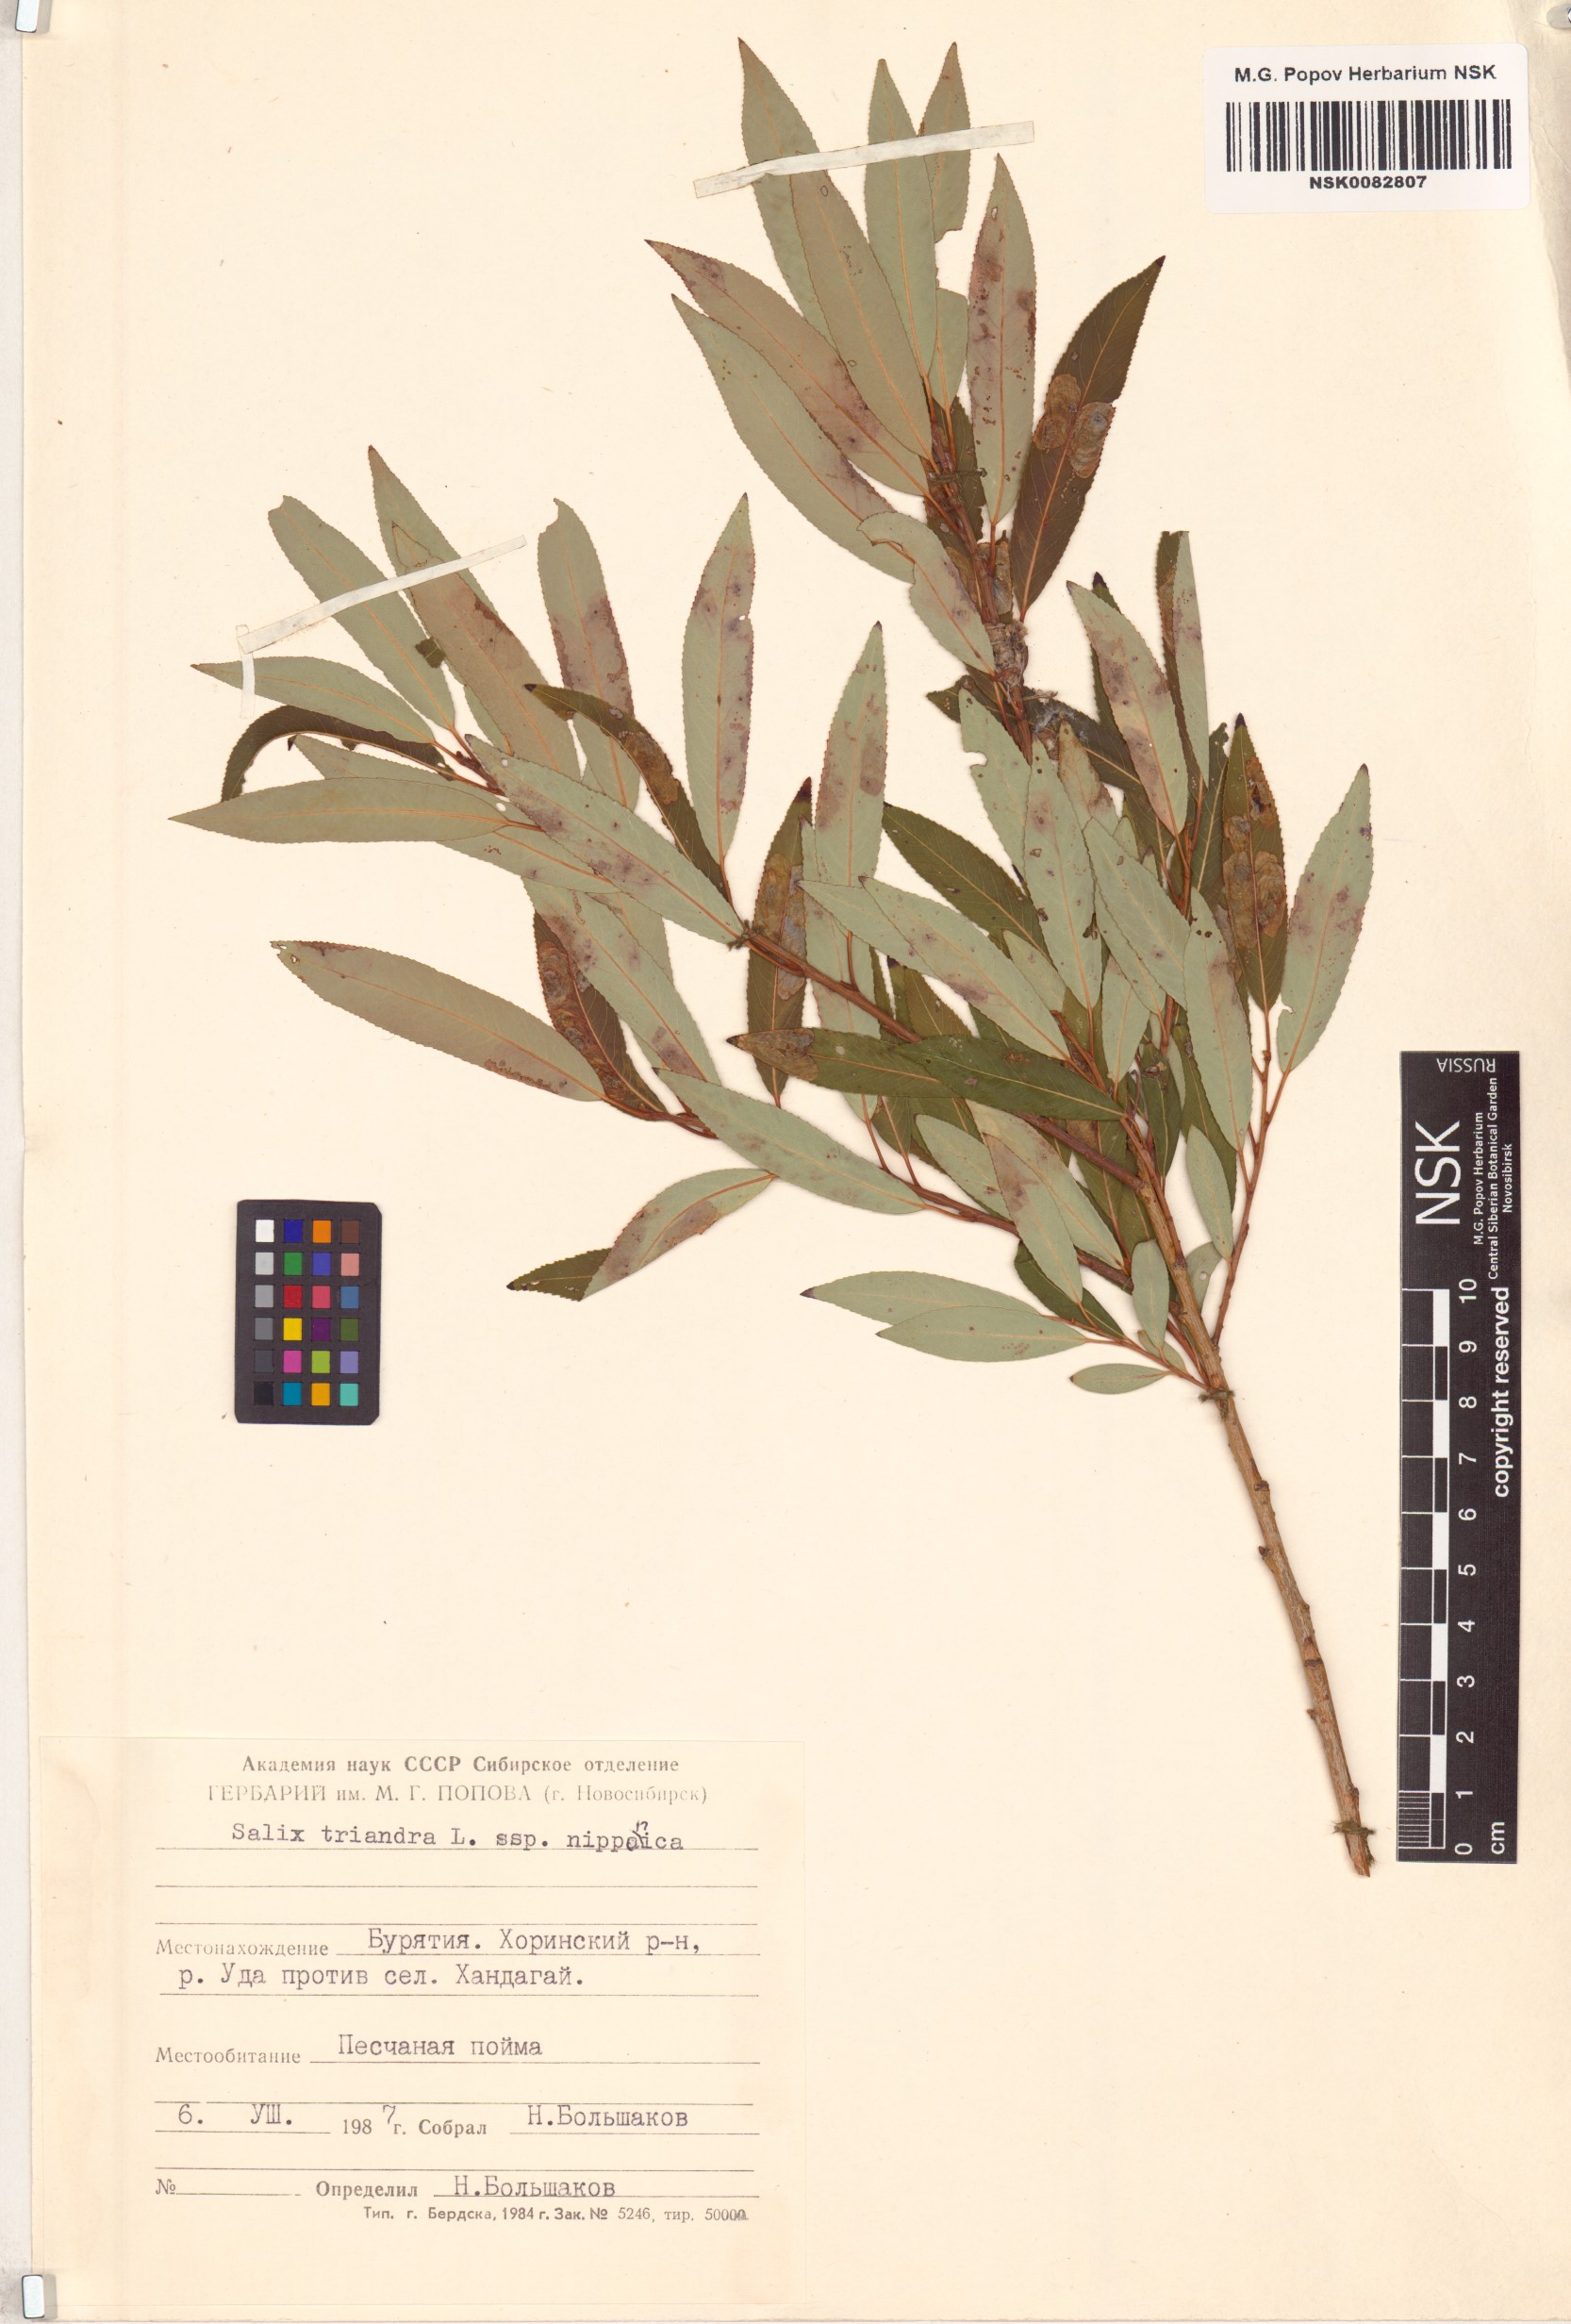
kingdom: Plantae
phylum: Tracheophyta
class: Magnoliopsida
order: Malpighiales
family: Salicaceae
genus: Salix
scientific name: Salix subfragilis
